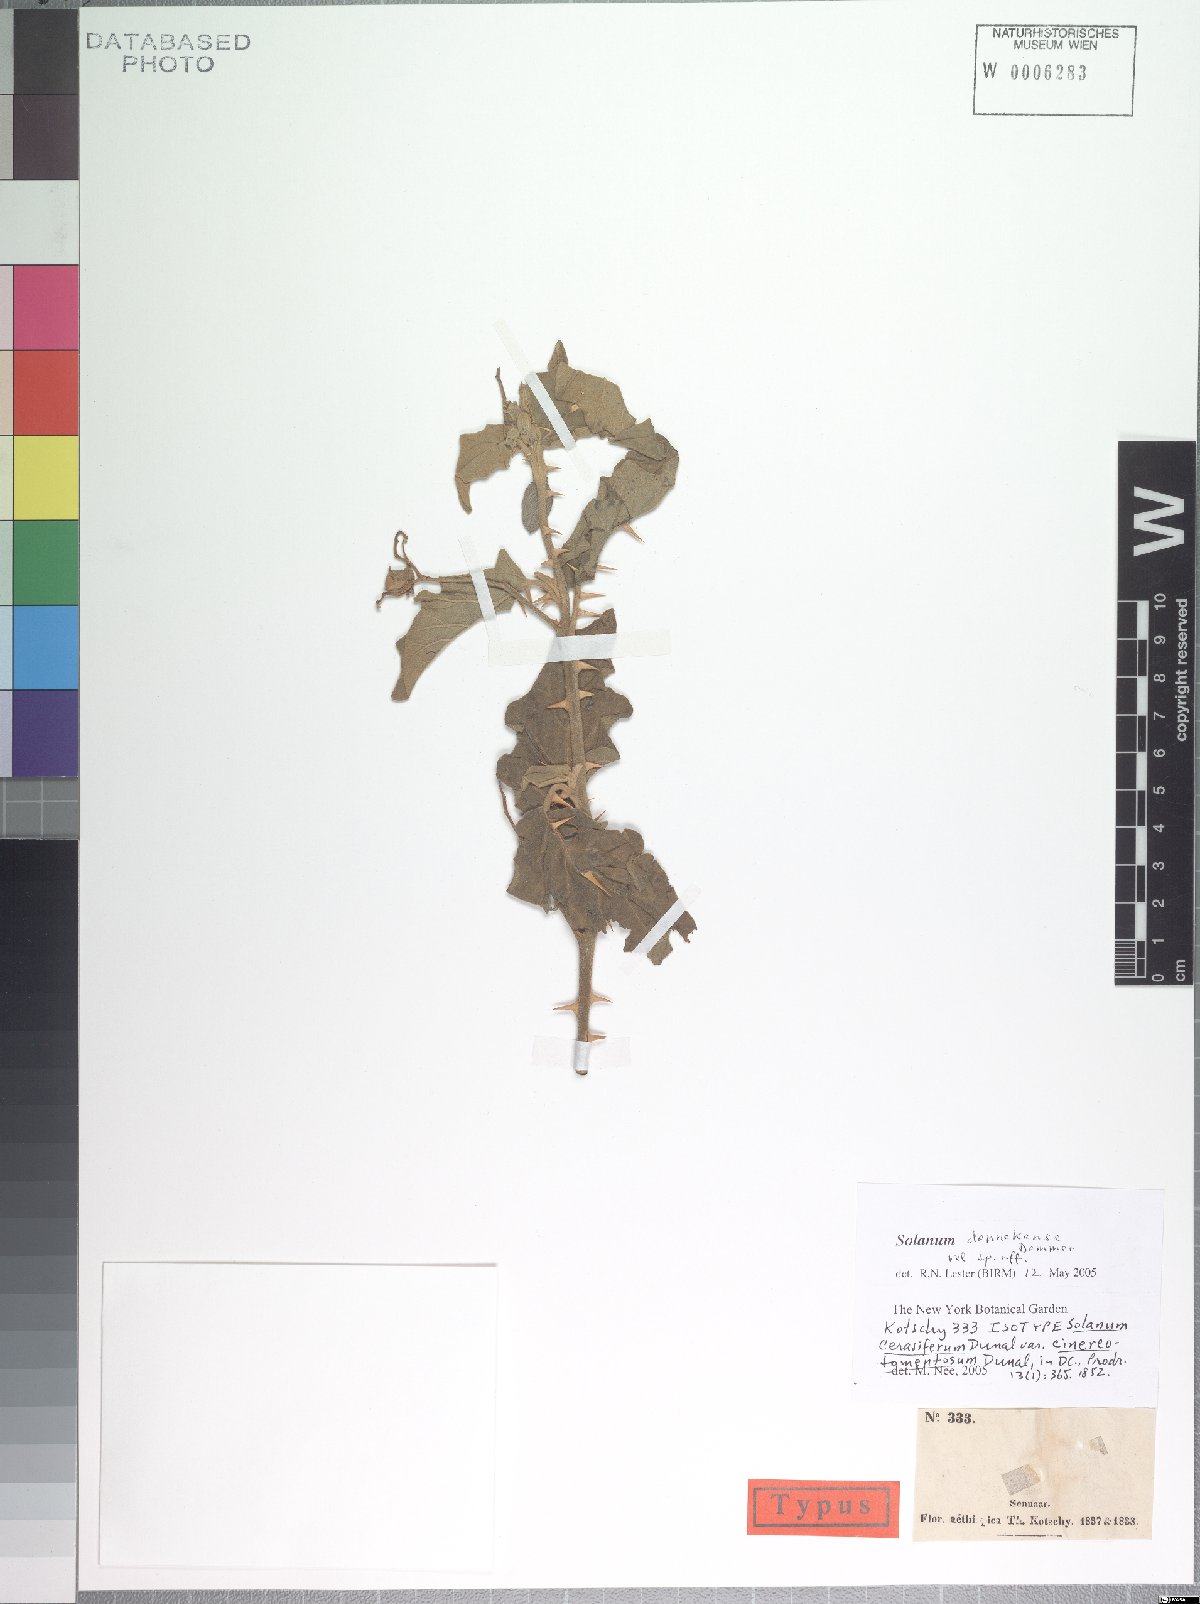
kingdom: Plantae
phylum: Tracheophyta
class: Magnoliopsida
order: Solanales
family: Solanaceae
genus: Solanum
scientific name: Solanum cerasiferum
